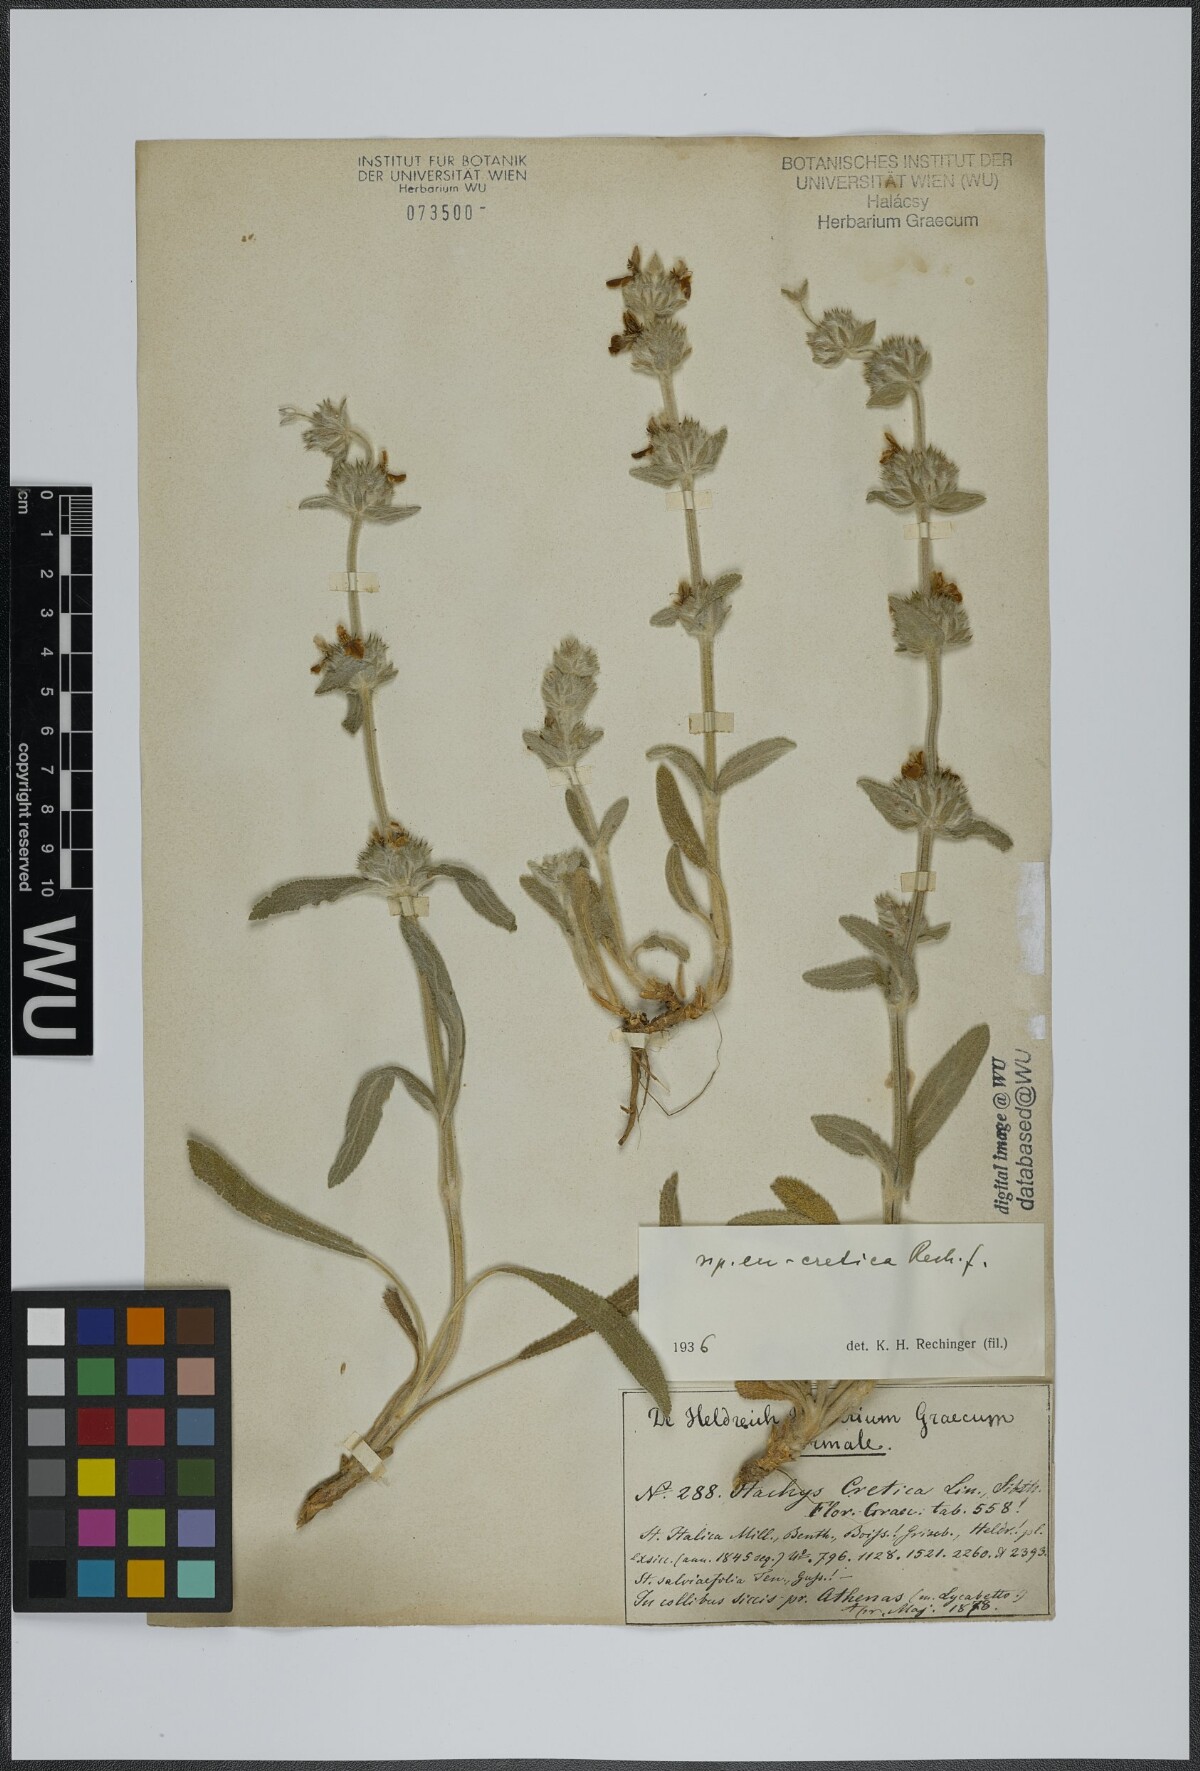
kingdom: Plantae
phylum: Tracheophyta
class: Magnoliopsida
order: Lamiales
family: Lamiaceae
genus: Stachys
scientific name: Stachys cretica
